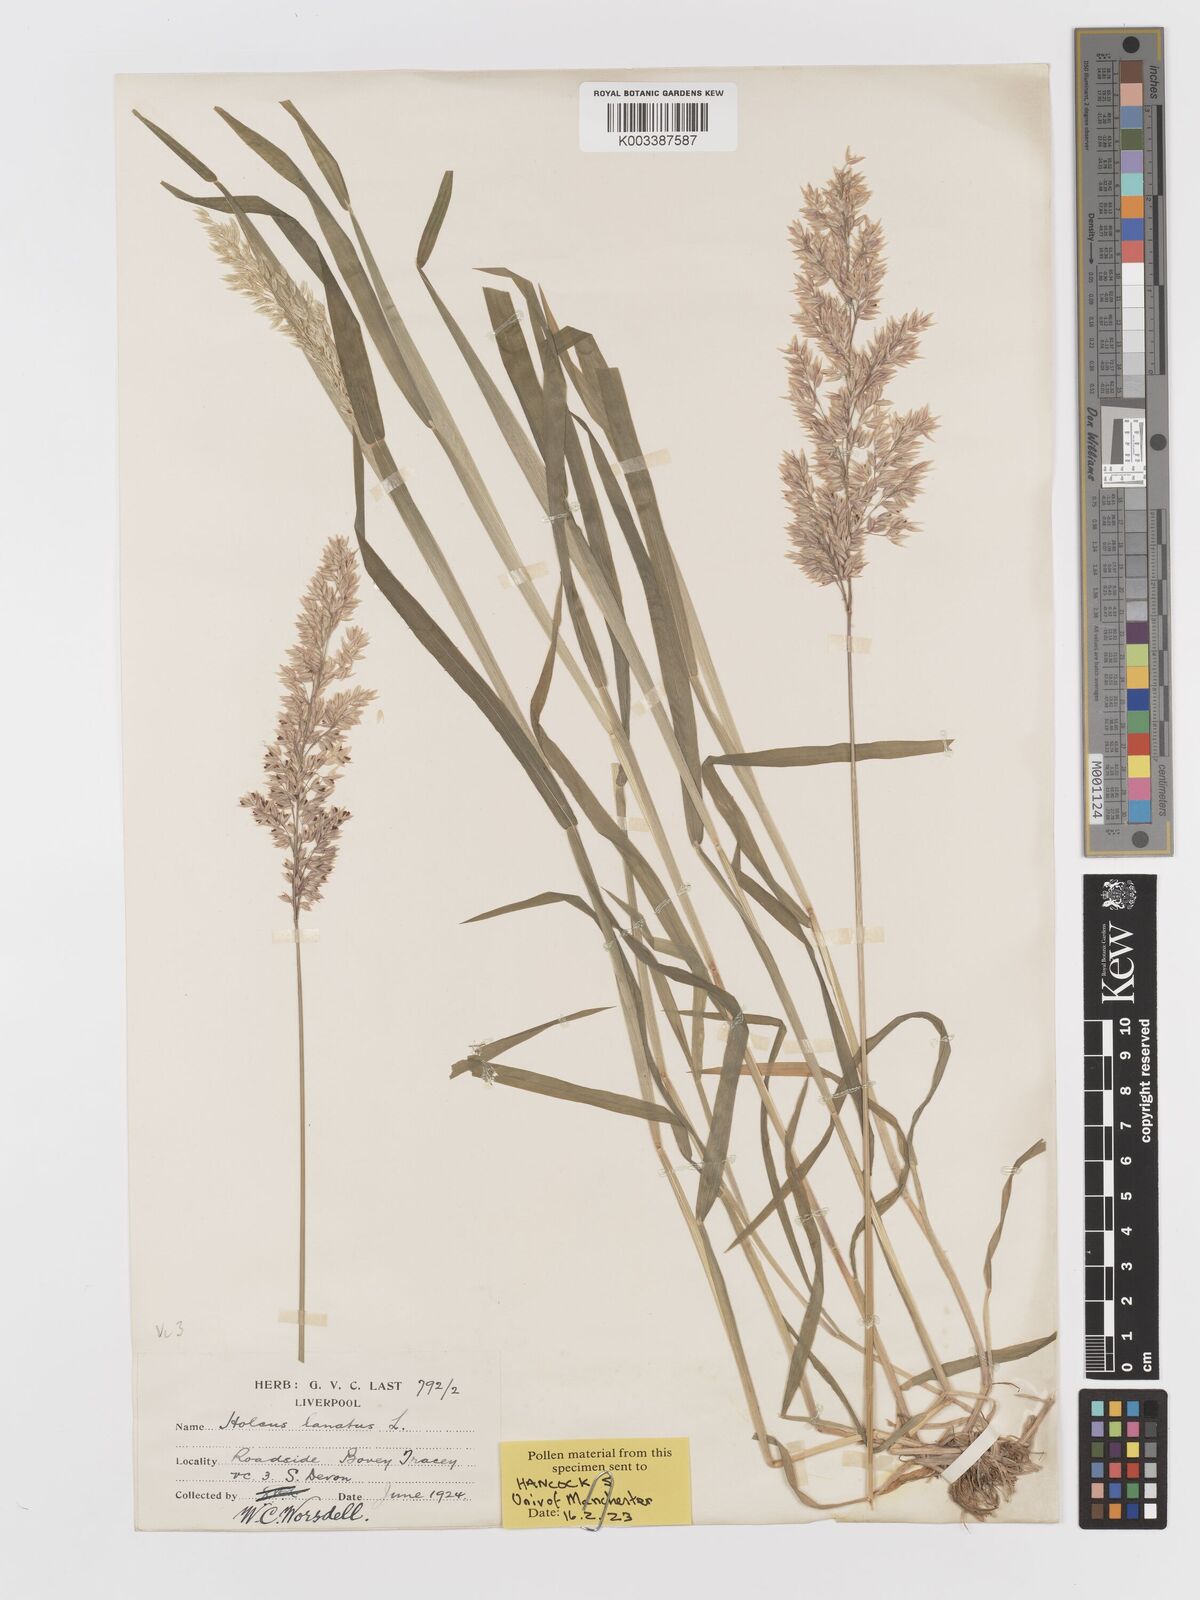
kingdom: Plantae
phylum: Tracheophyta
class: Liliopsida
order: Poales
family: Poaceae
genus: Holcus
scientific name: Holcus lanatus
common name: Yorkshire-fog
